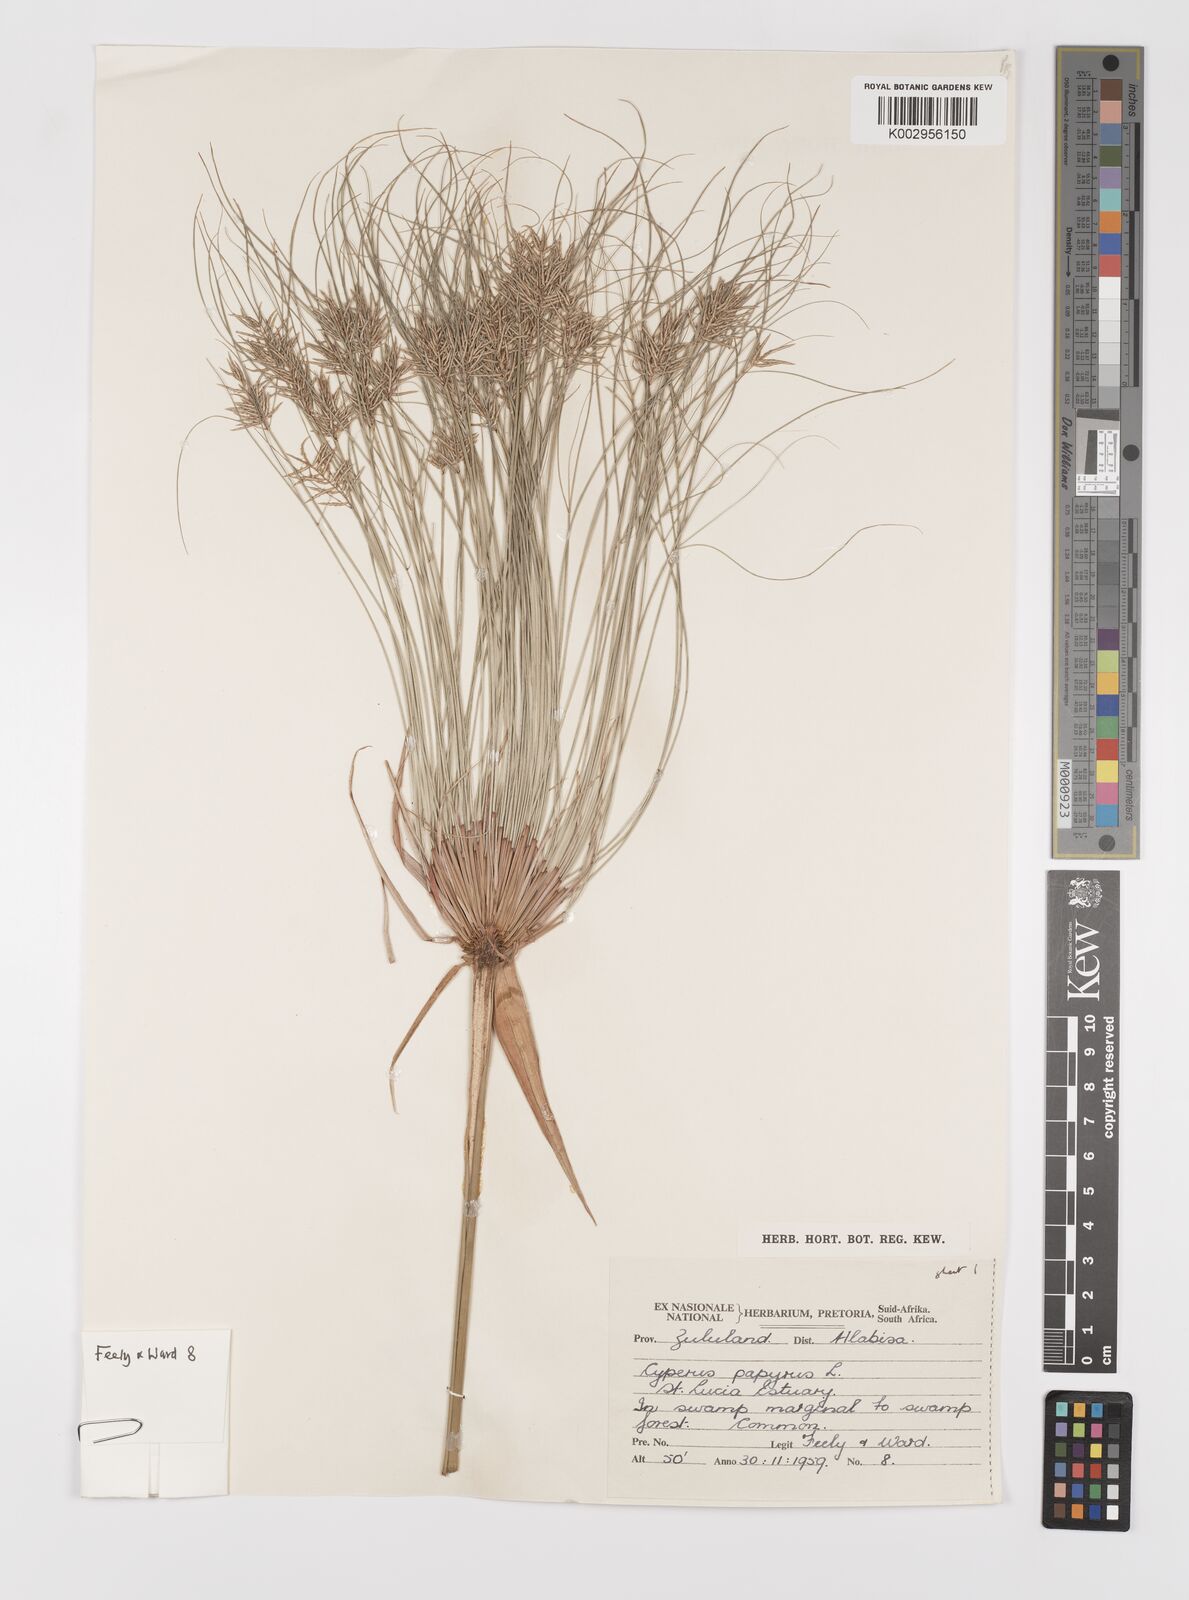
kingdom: Plantae
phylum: Tracheophyta
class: Liliopsida
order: Poales
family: Cyperaceae
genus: Cyperus
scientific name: Cyperus papyrus
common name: Papyrus
